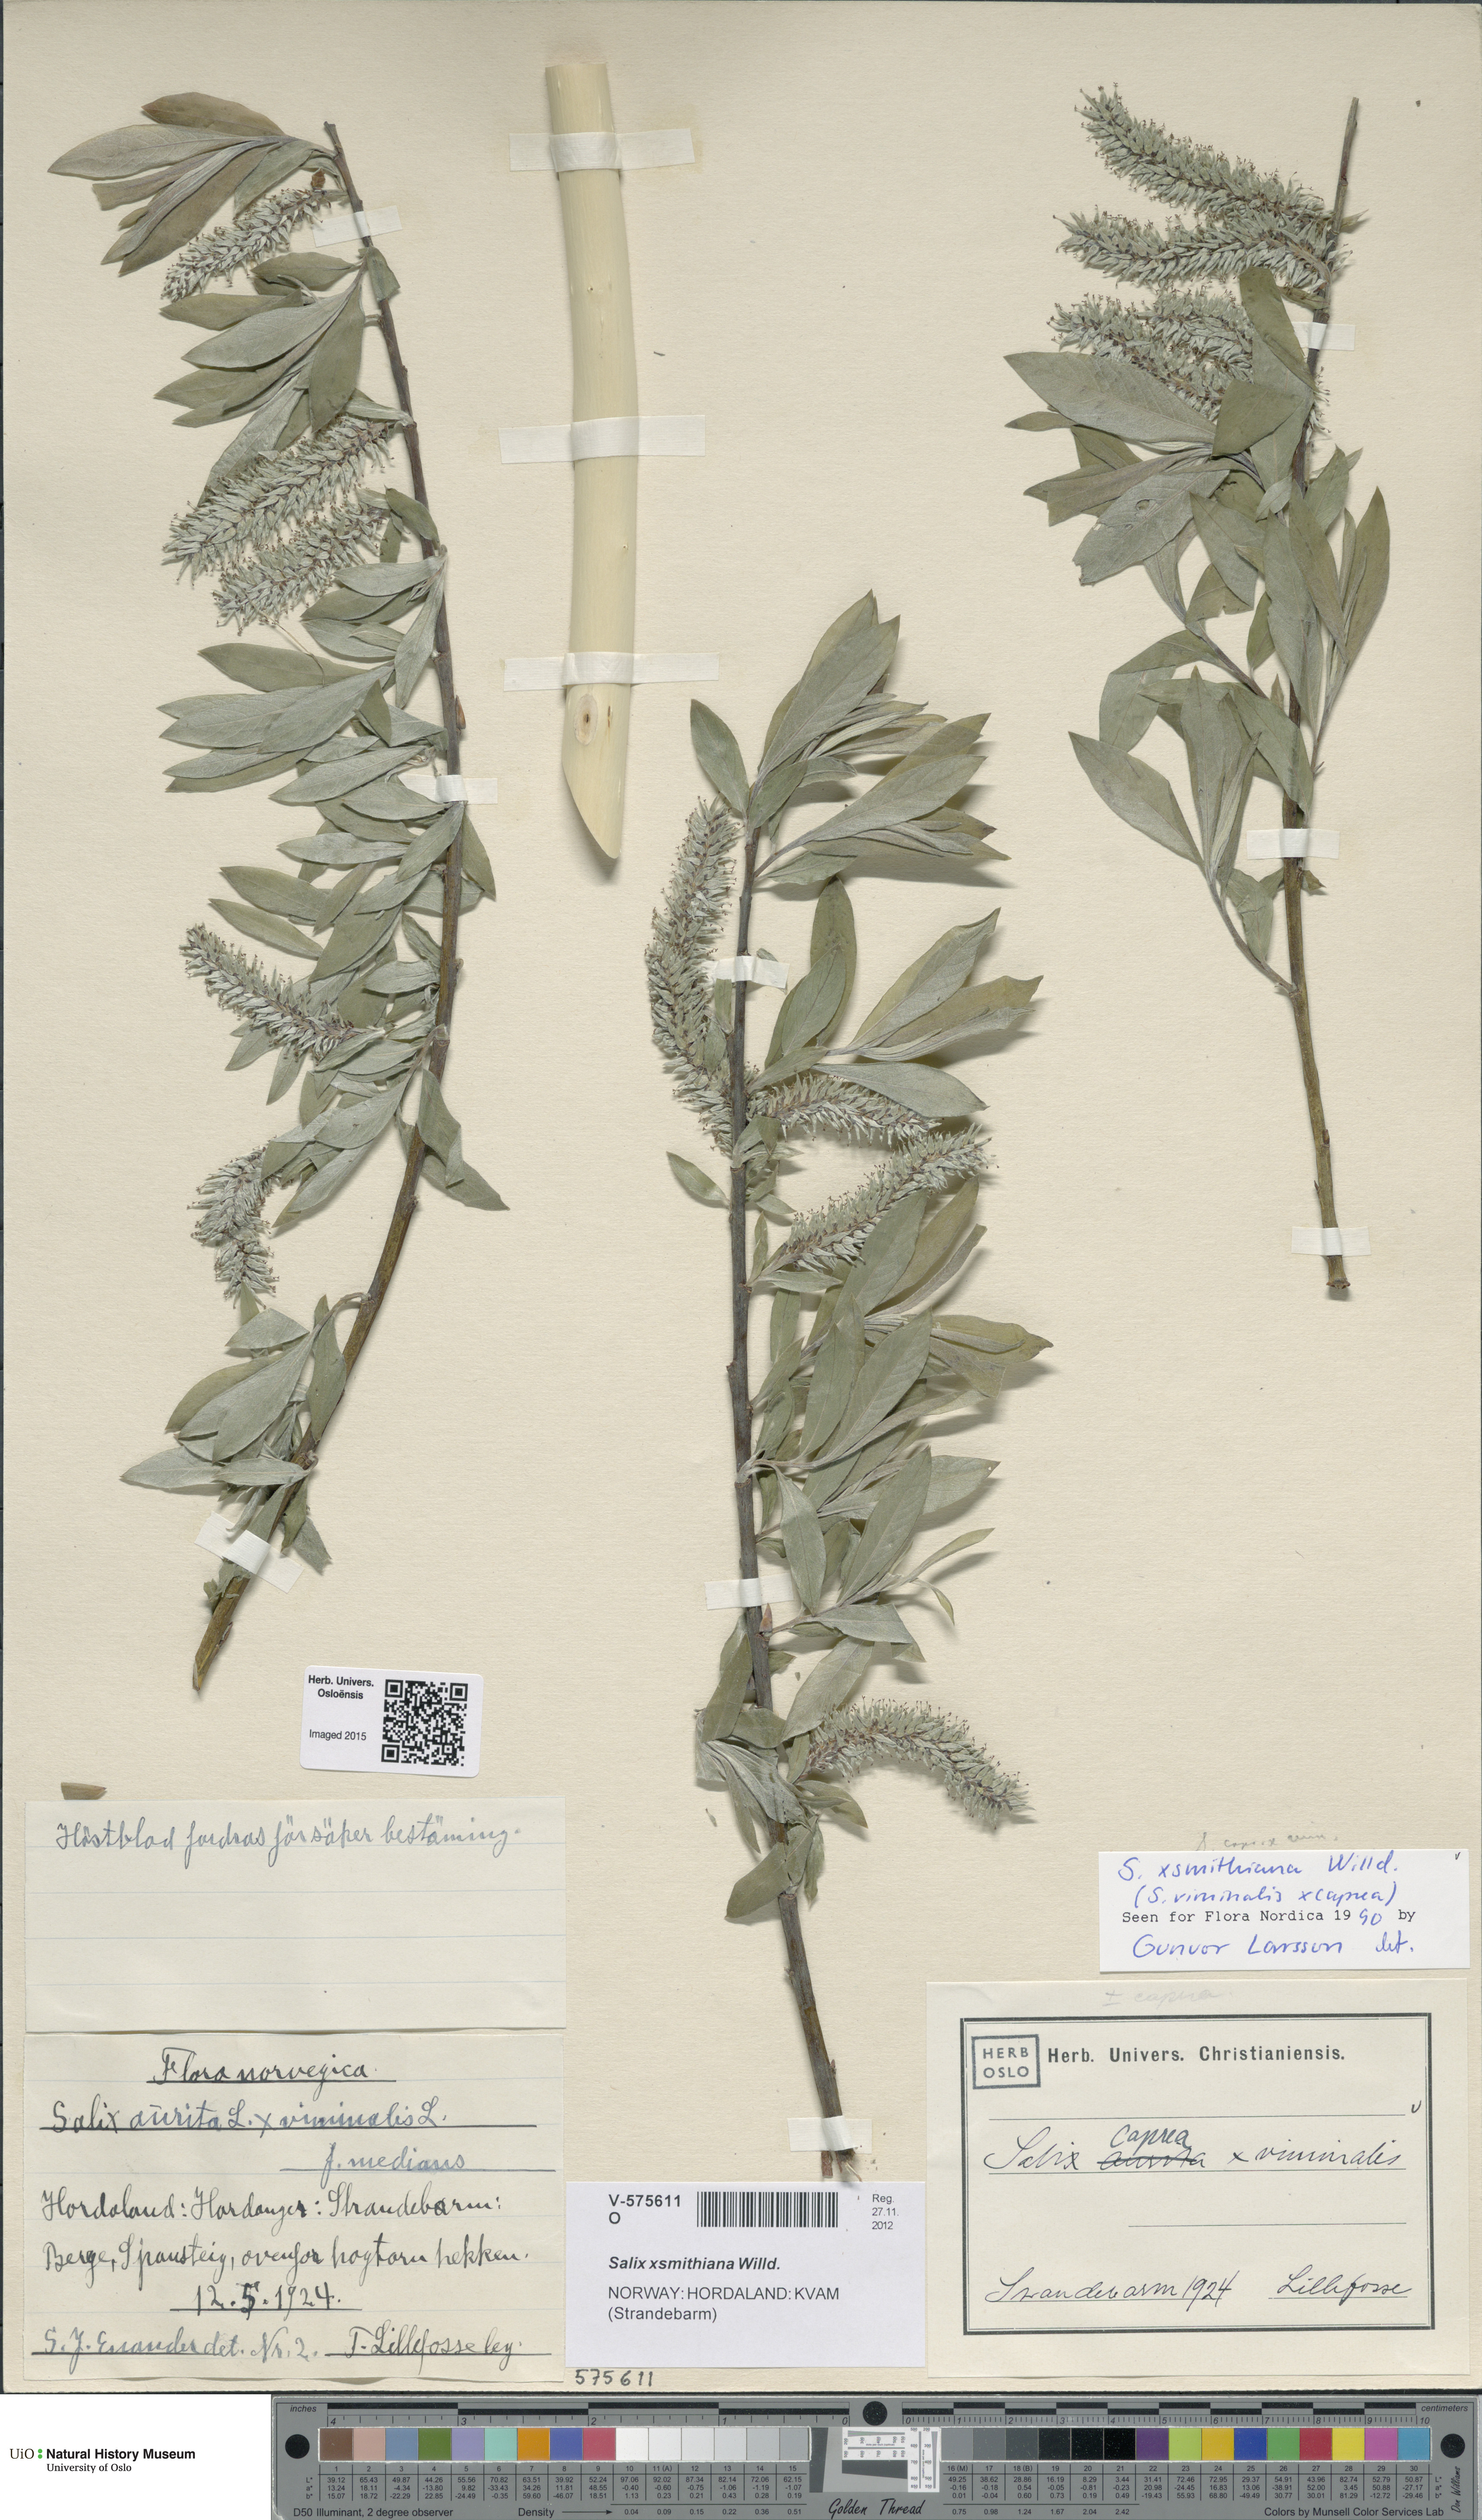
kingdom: Plantae
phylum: Tracheophyta
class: Magnoliopsida
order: Malpighiales
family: Salicaceae
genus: Salix
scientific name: Salix smithiana
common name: Silky-leaved osier
